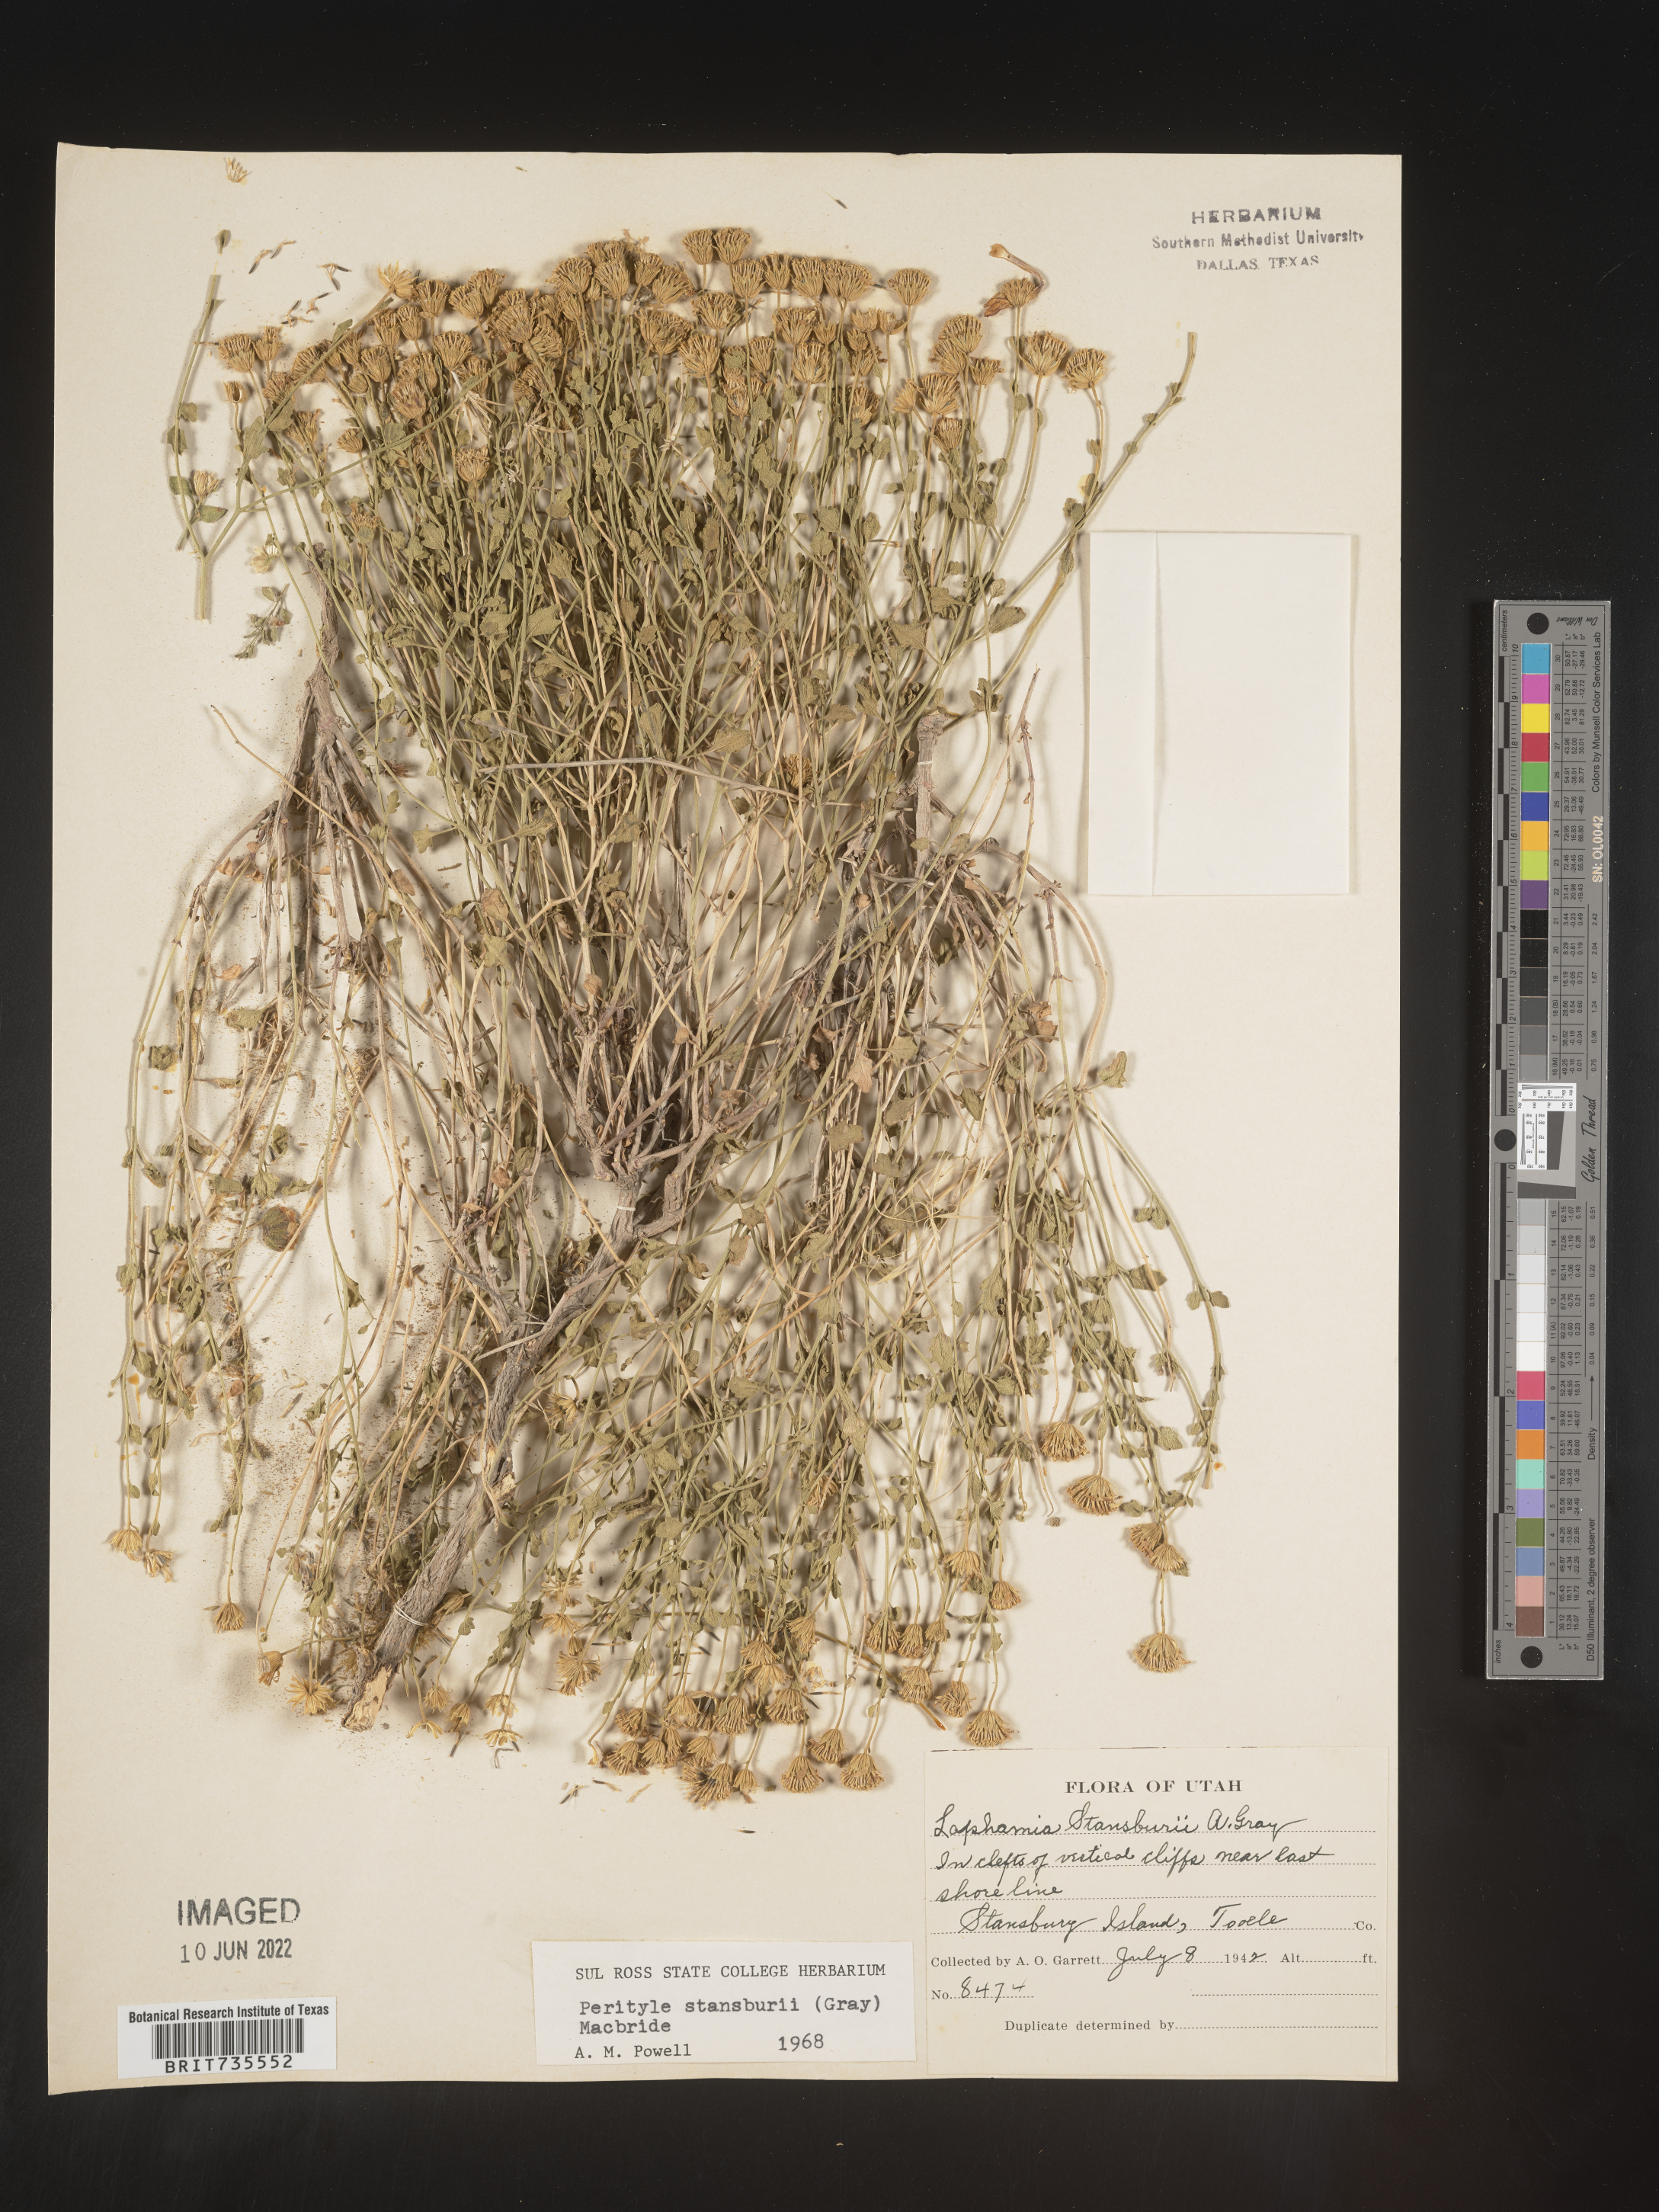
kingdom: Plantae
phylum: Tracheophyta
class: Magnoliopsida
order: Asterales
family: Asteraceae
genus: Perityle
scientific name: Perityle
